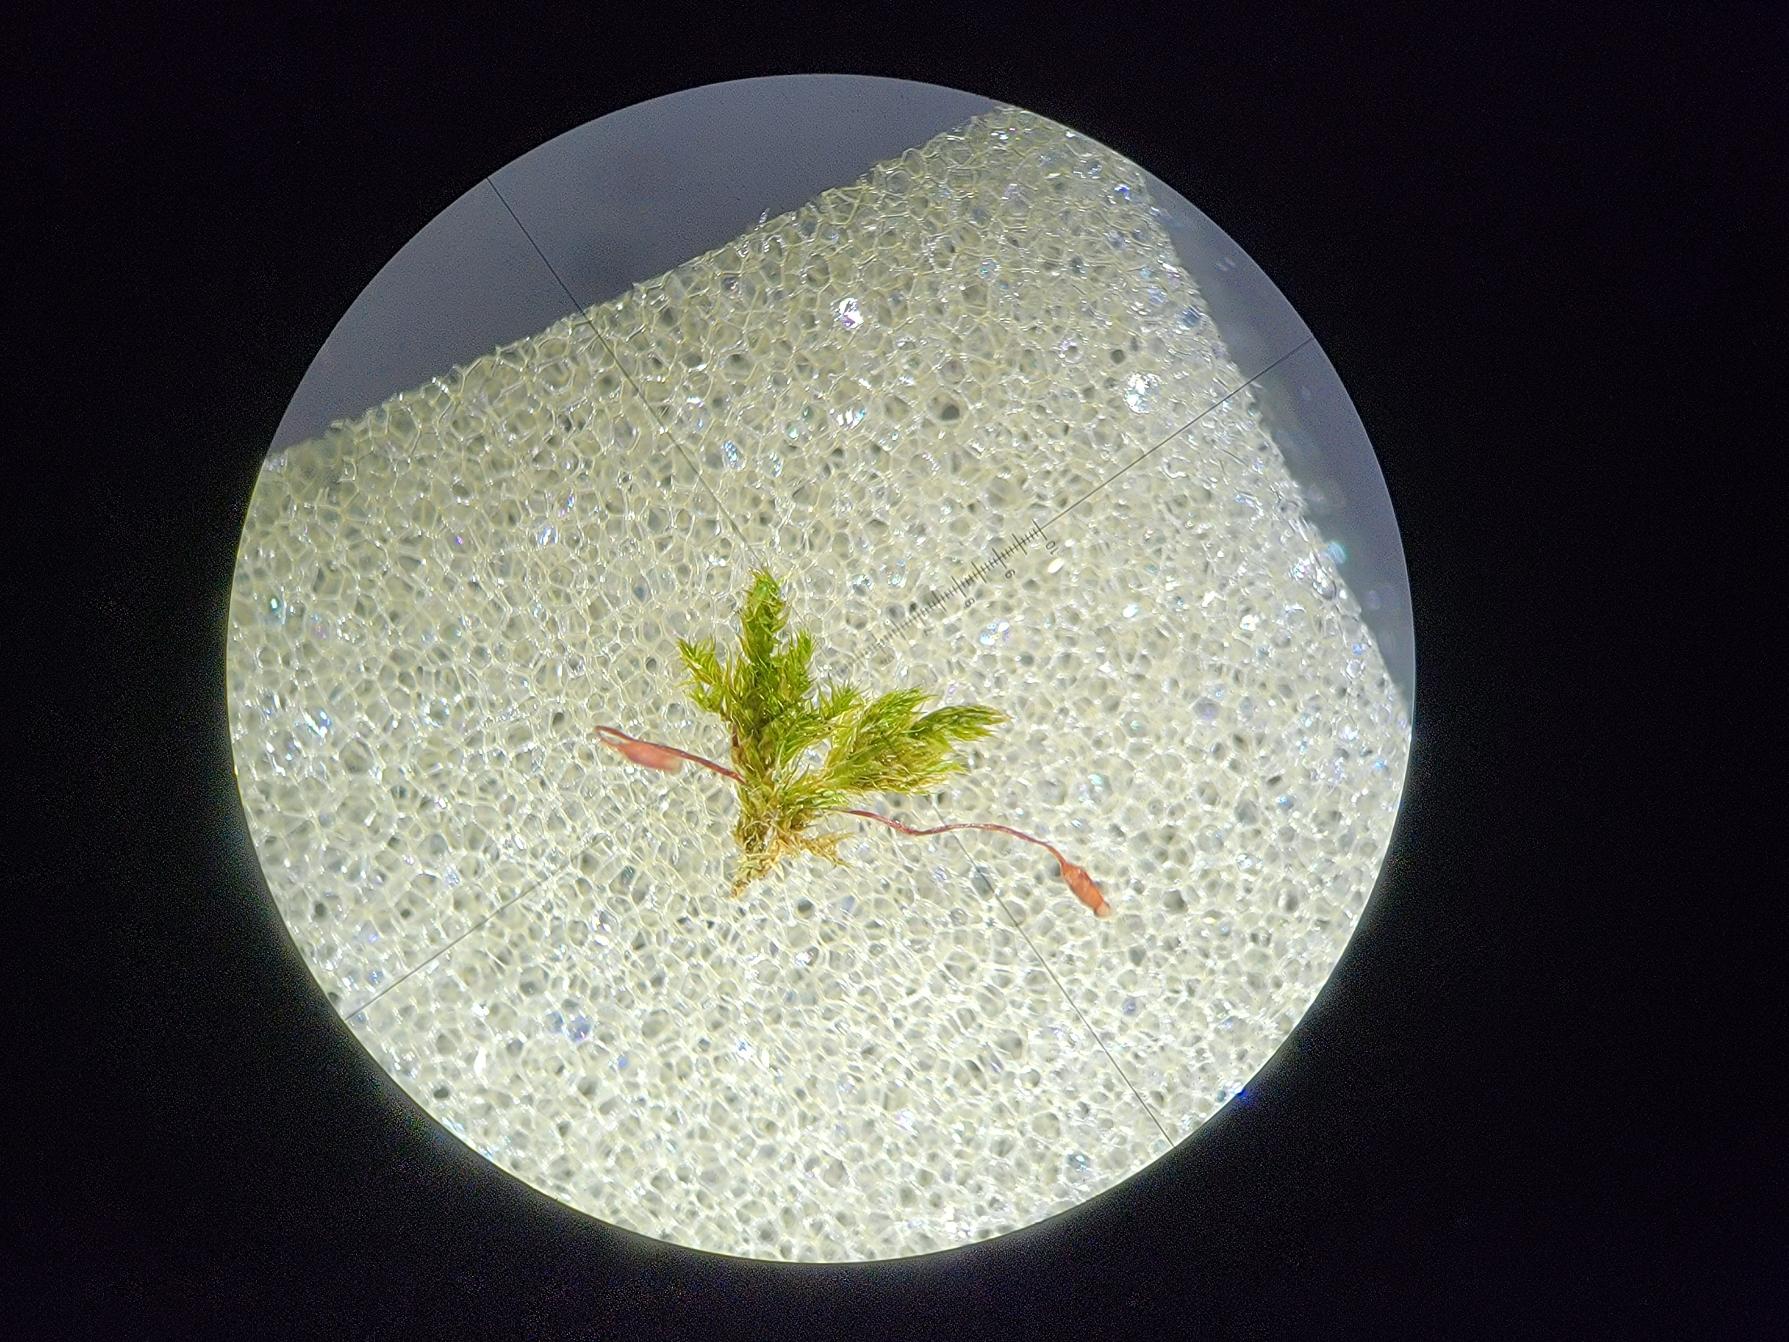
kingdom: Plantae
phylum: Bryophyta
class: Bryopsida
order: Hypnales
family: Pylaisiaceae
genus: Pylaisia
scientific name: Pylaisia polyantha
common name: Mangefrugtet aspemos
